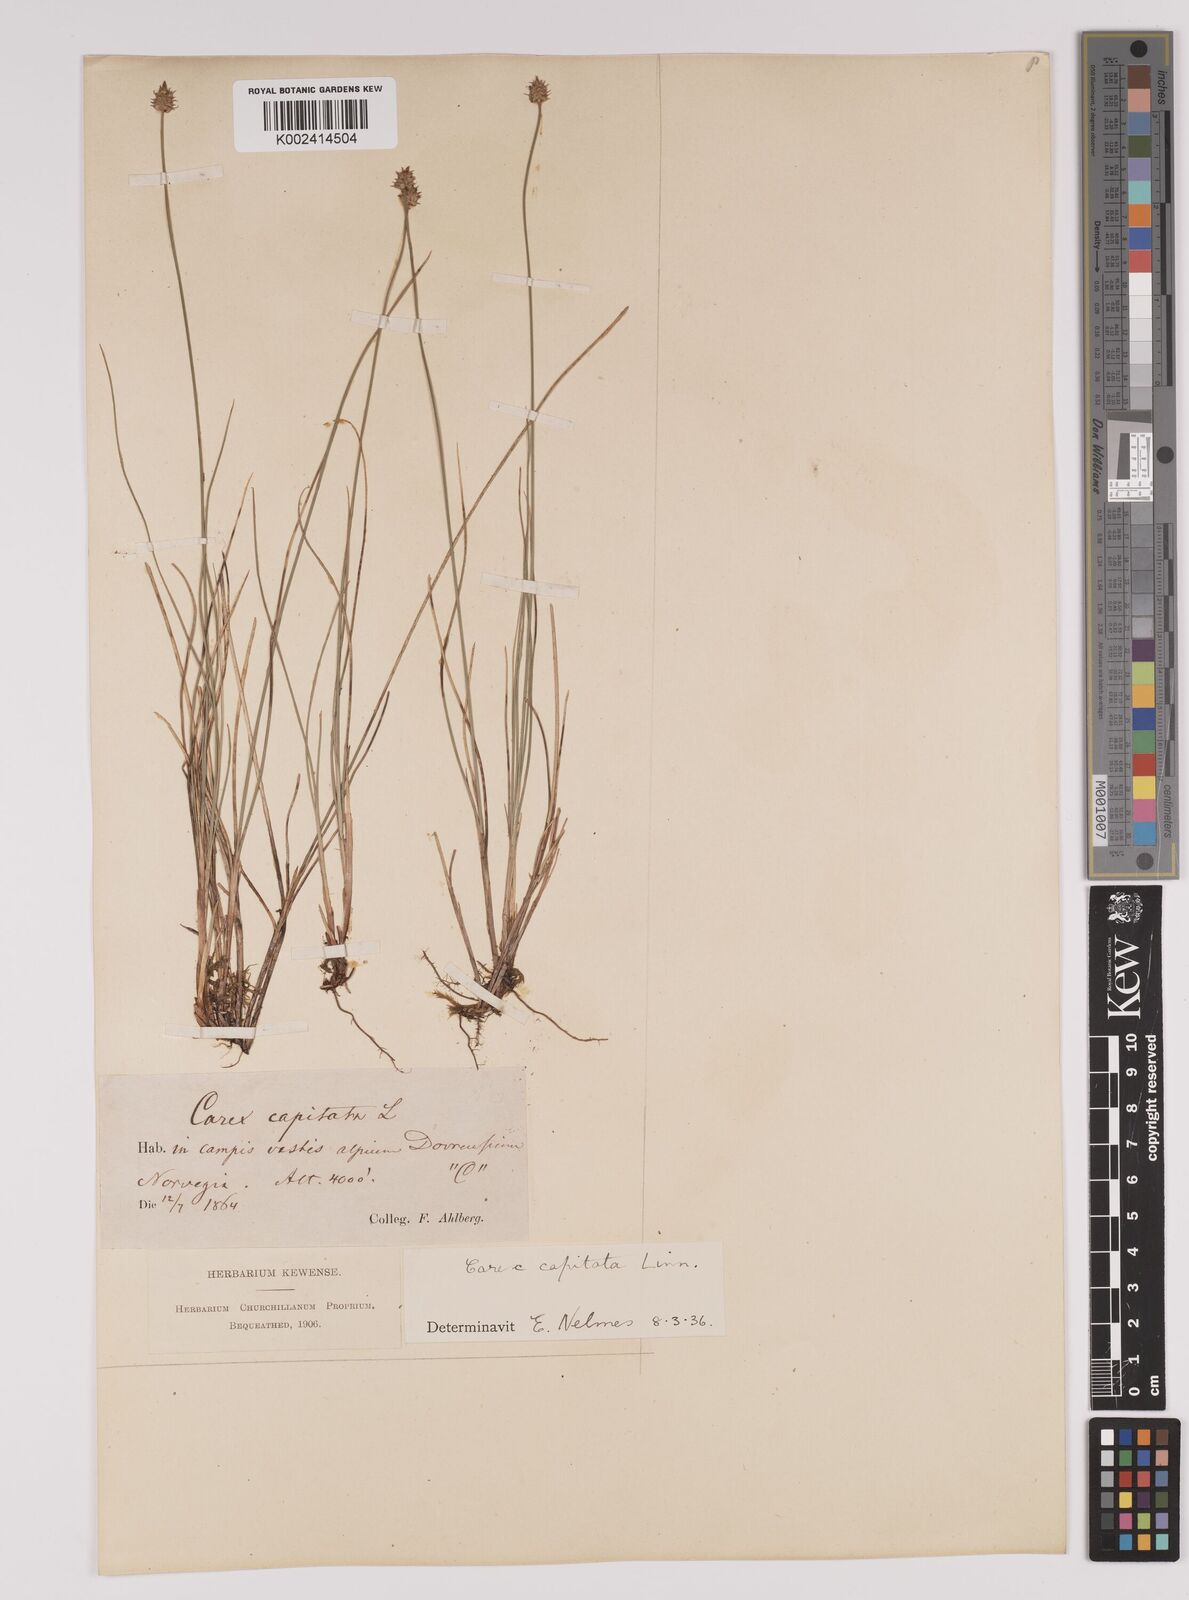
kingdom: Plantae
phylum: Tracheophyta
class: Liliopsida
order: Poales
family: Cyperaceae
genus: Carex
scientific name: Carex capitata
